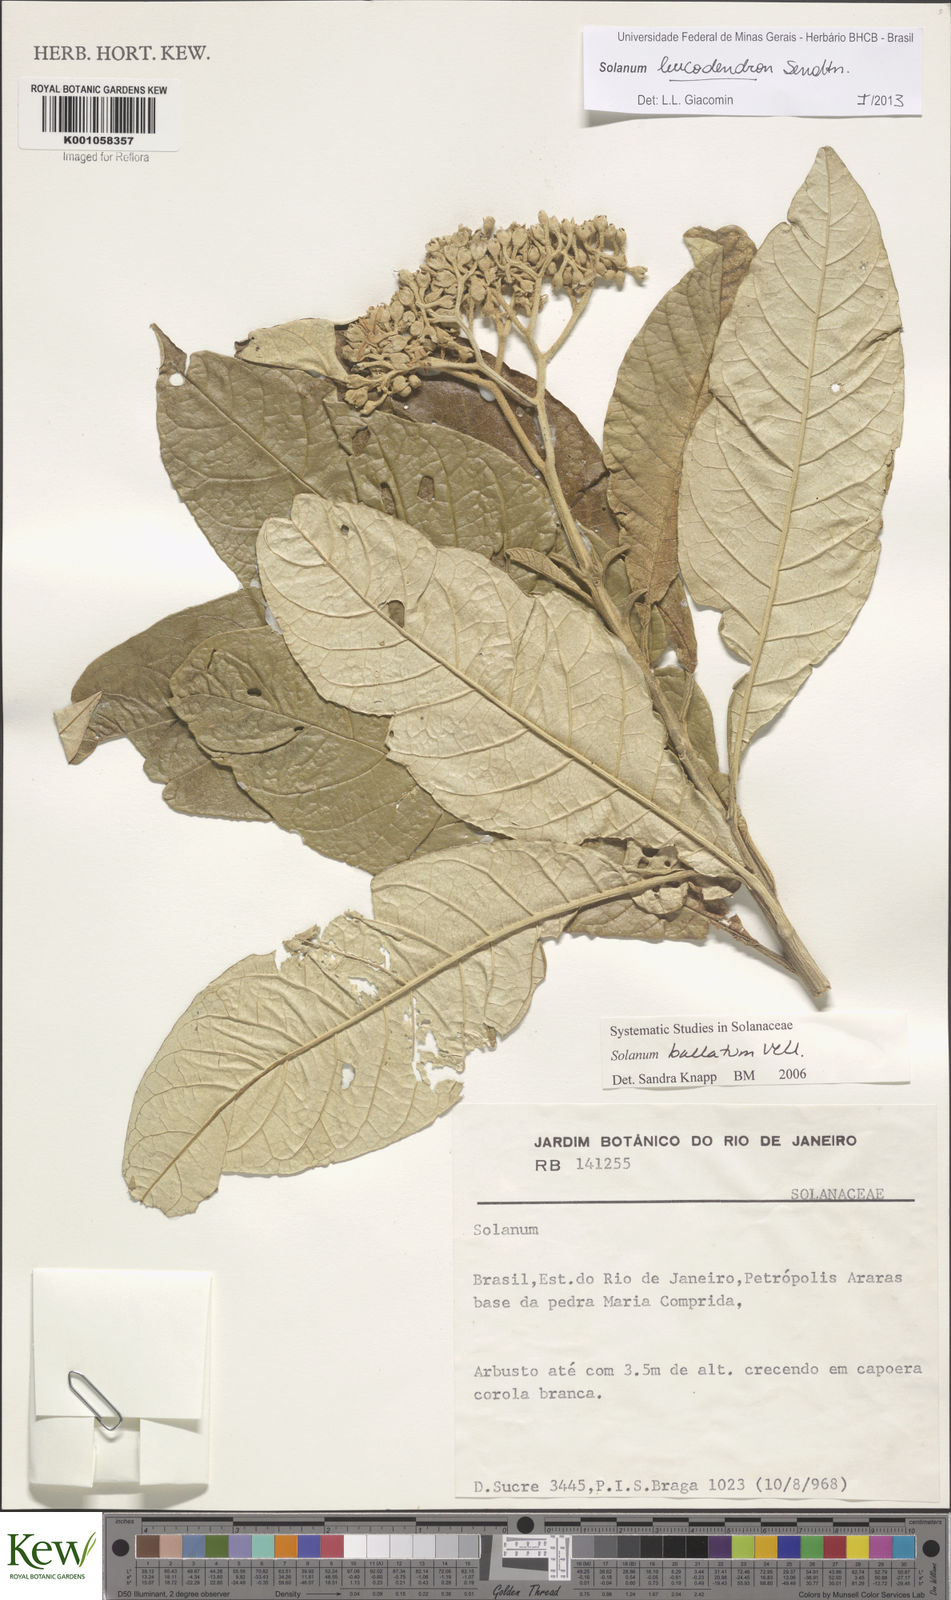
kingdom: Plantae
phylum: Tracheophyta
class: Magnoliopsida
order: Solanales
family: Solanaceae
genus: Solanum
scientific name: Solanum leucodendron
